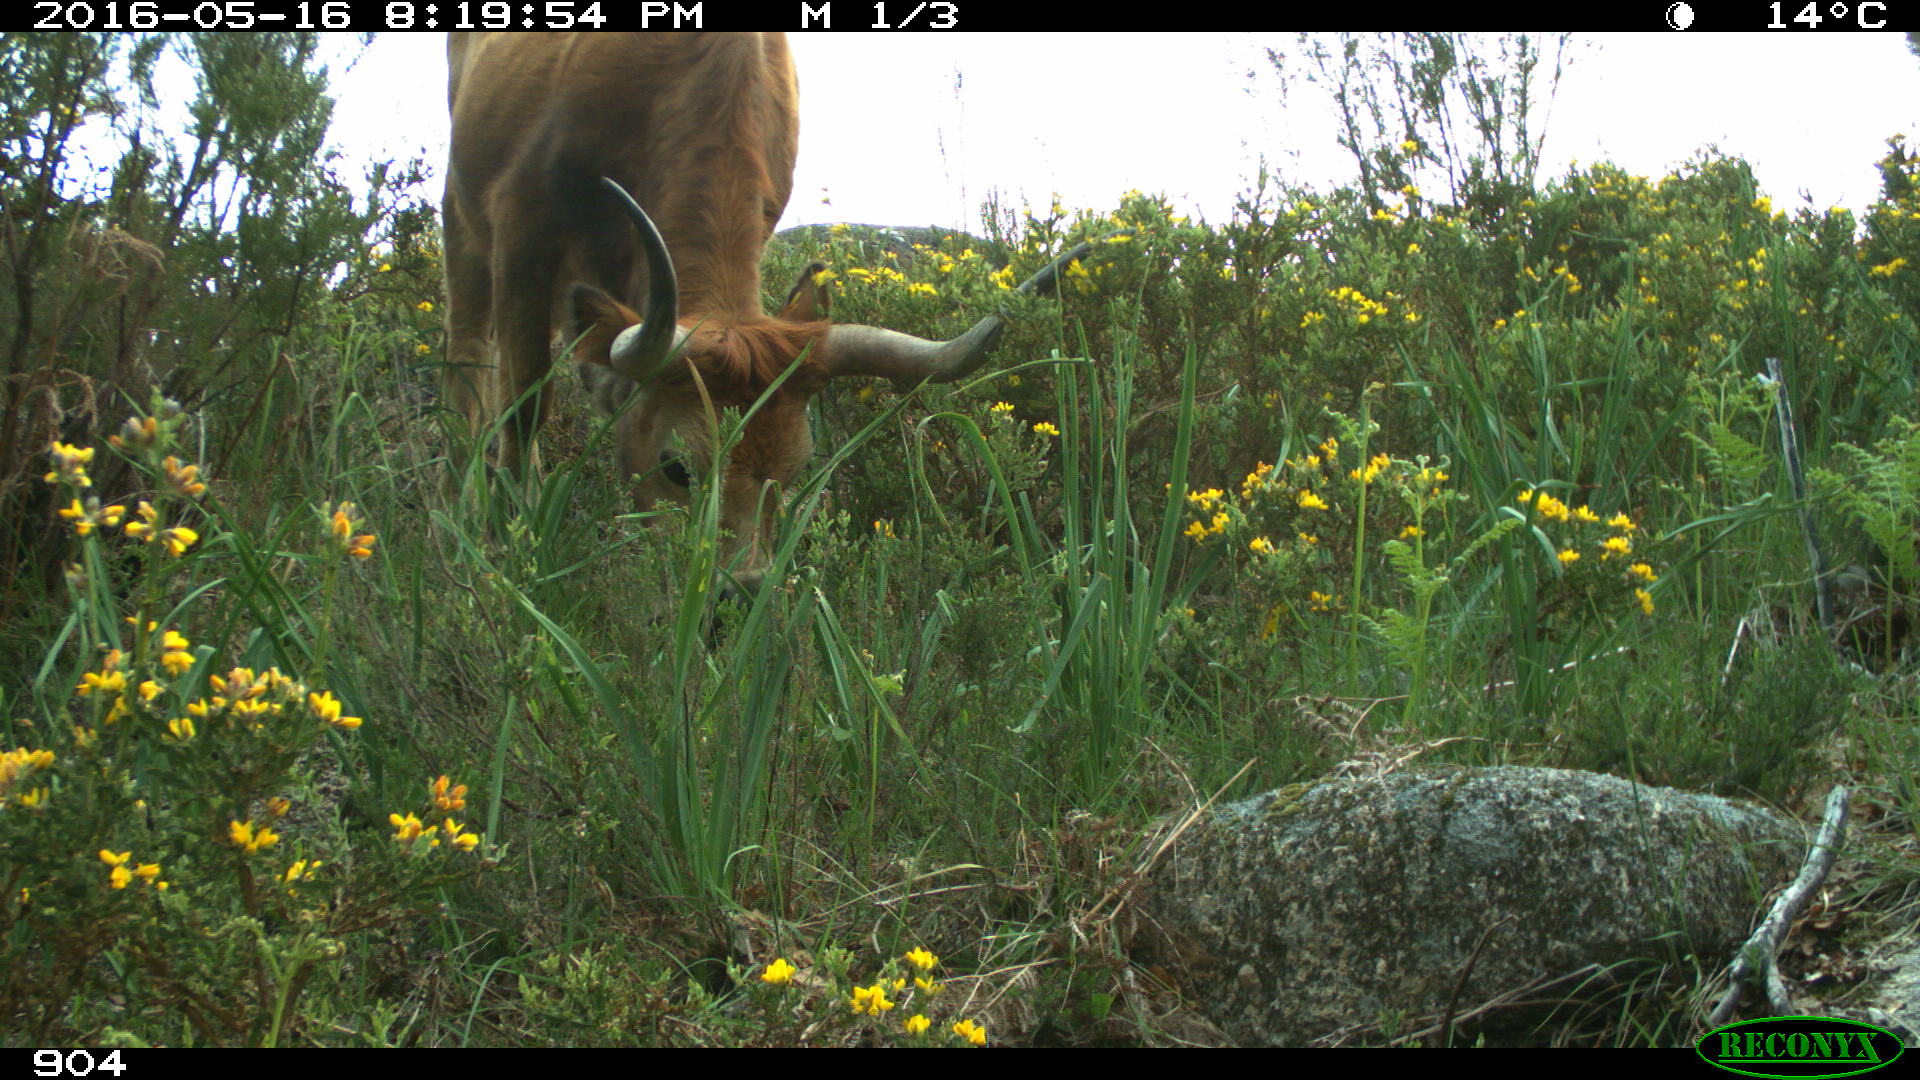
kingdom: Animalia
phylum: Chordata
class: Mammalia
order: Artiodactyla
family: Bovidae
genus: Bos
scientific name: Bos taurus
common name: Domesticated cattle
